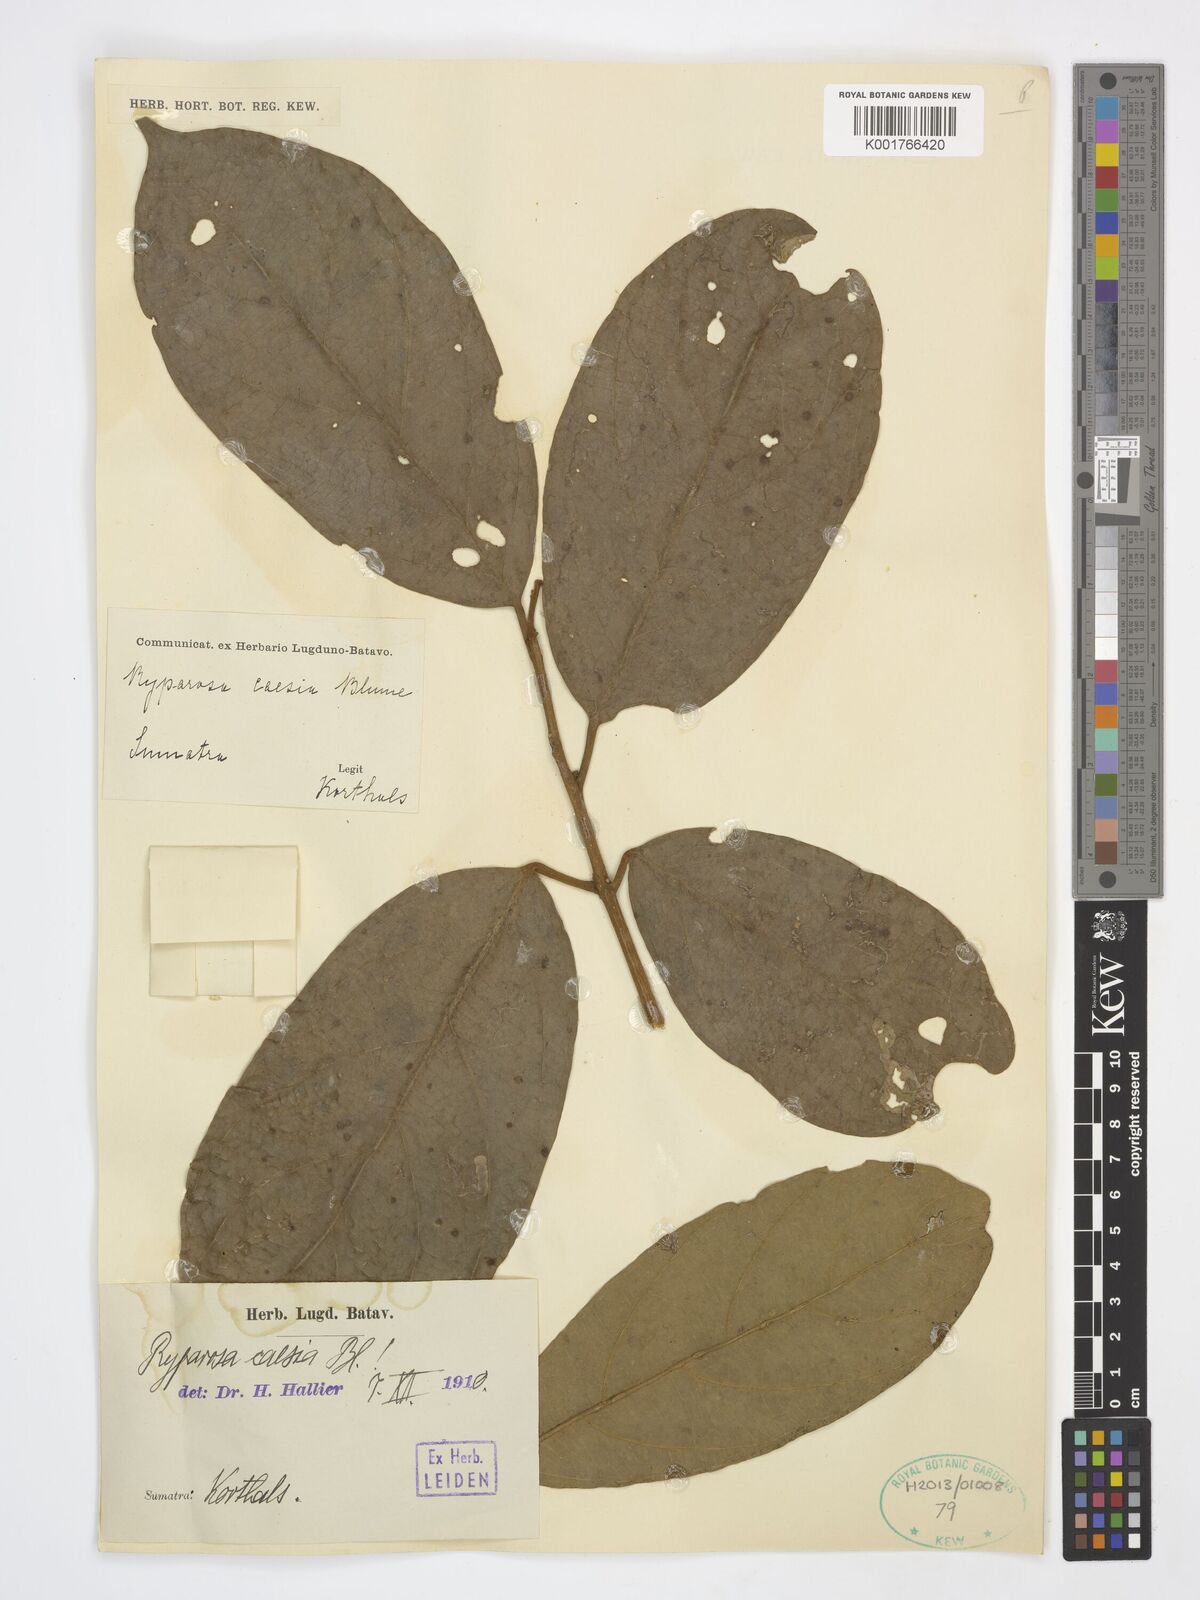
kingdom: Plantae
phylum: Tracheophyta
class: Magnoliopsida
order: Malpighiales
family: Achariaceae
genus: Ryparosa
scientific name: Ryparosa caesia
